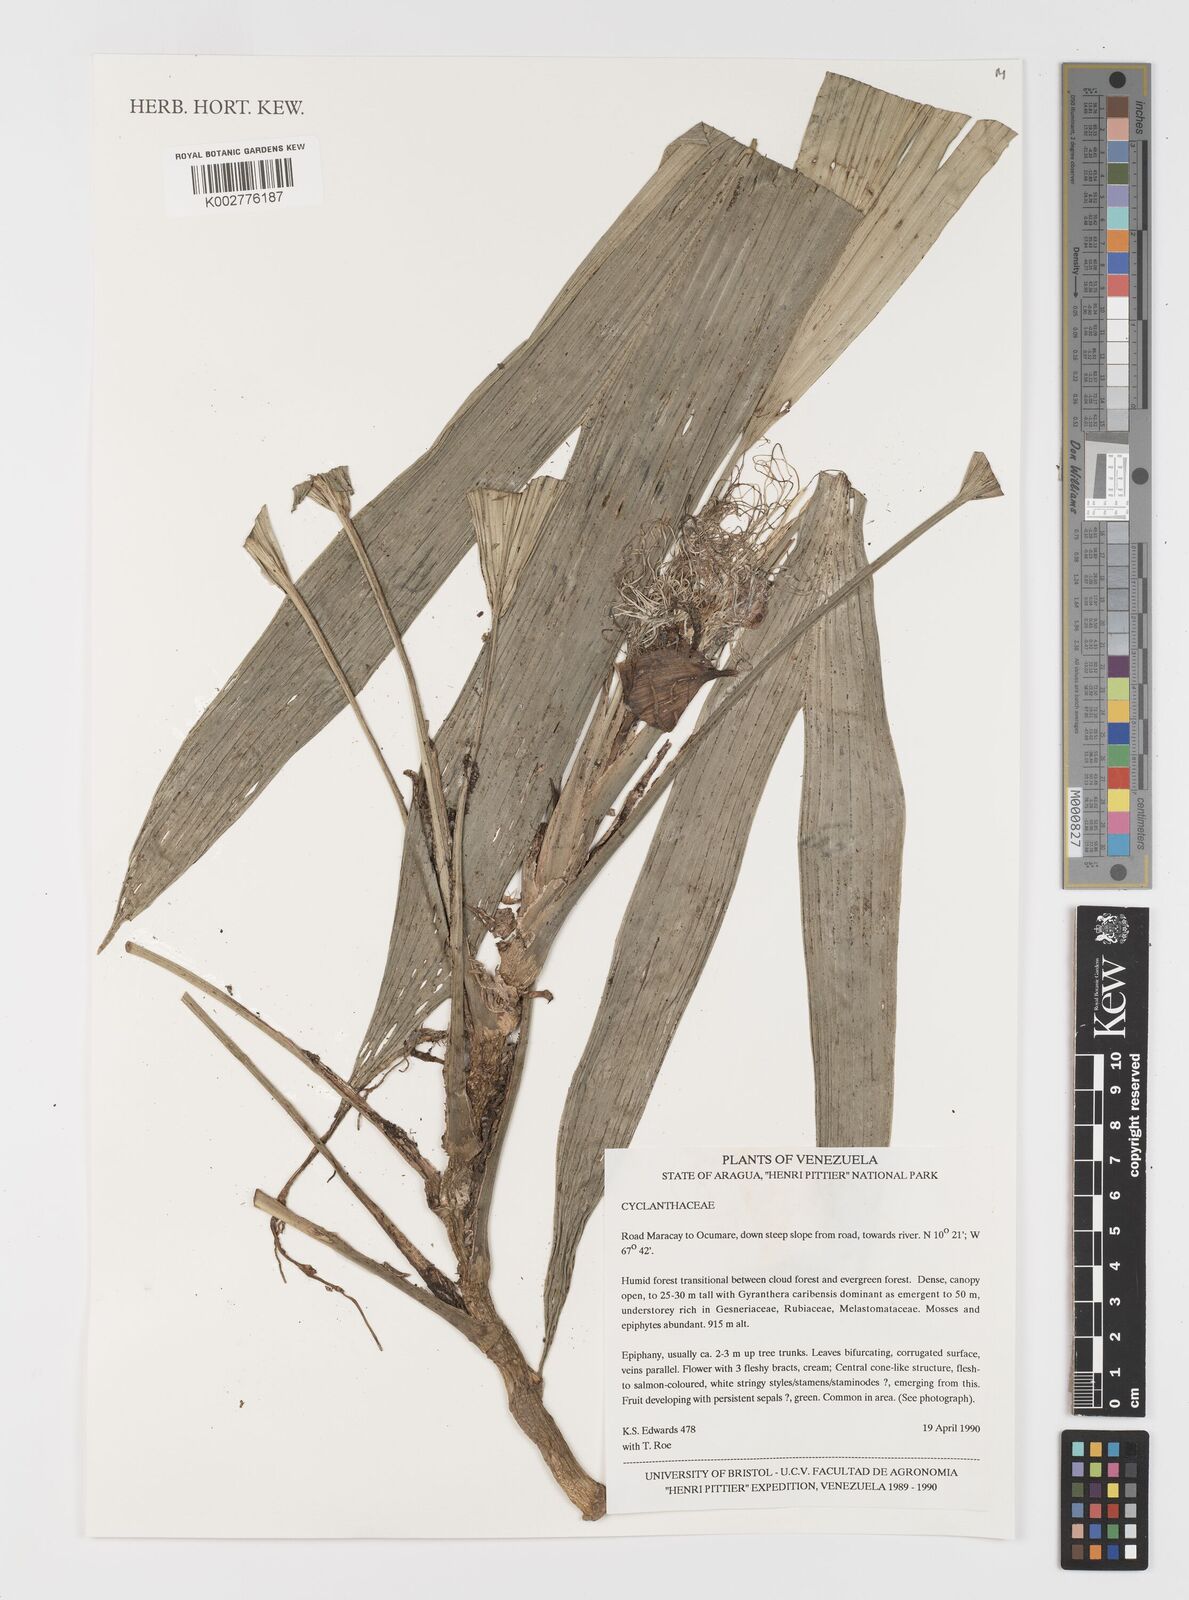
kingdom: Plantae
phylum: Tracheophyta
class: Liliopsida
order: Pandanales
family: Cyclanthaceae
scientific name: Cyclanthaceae
